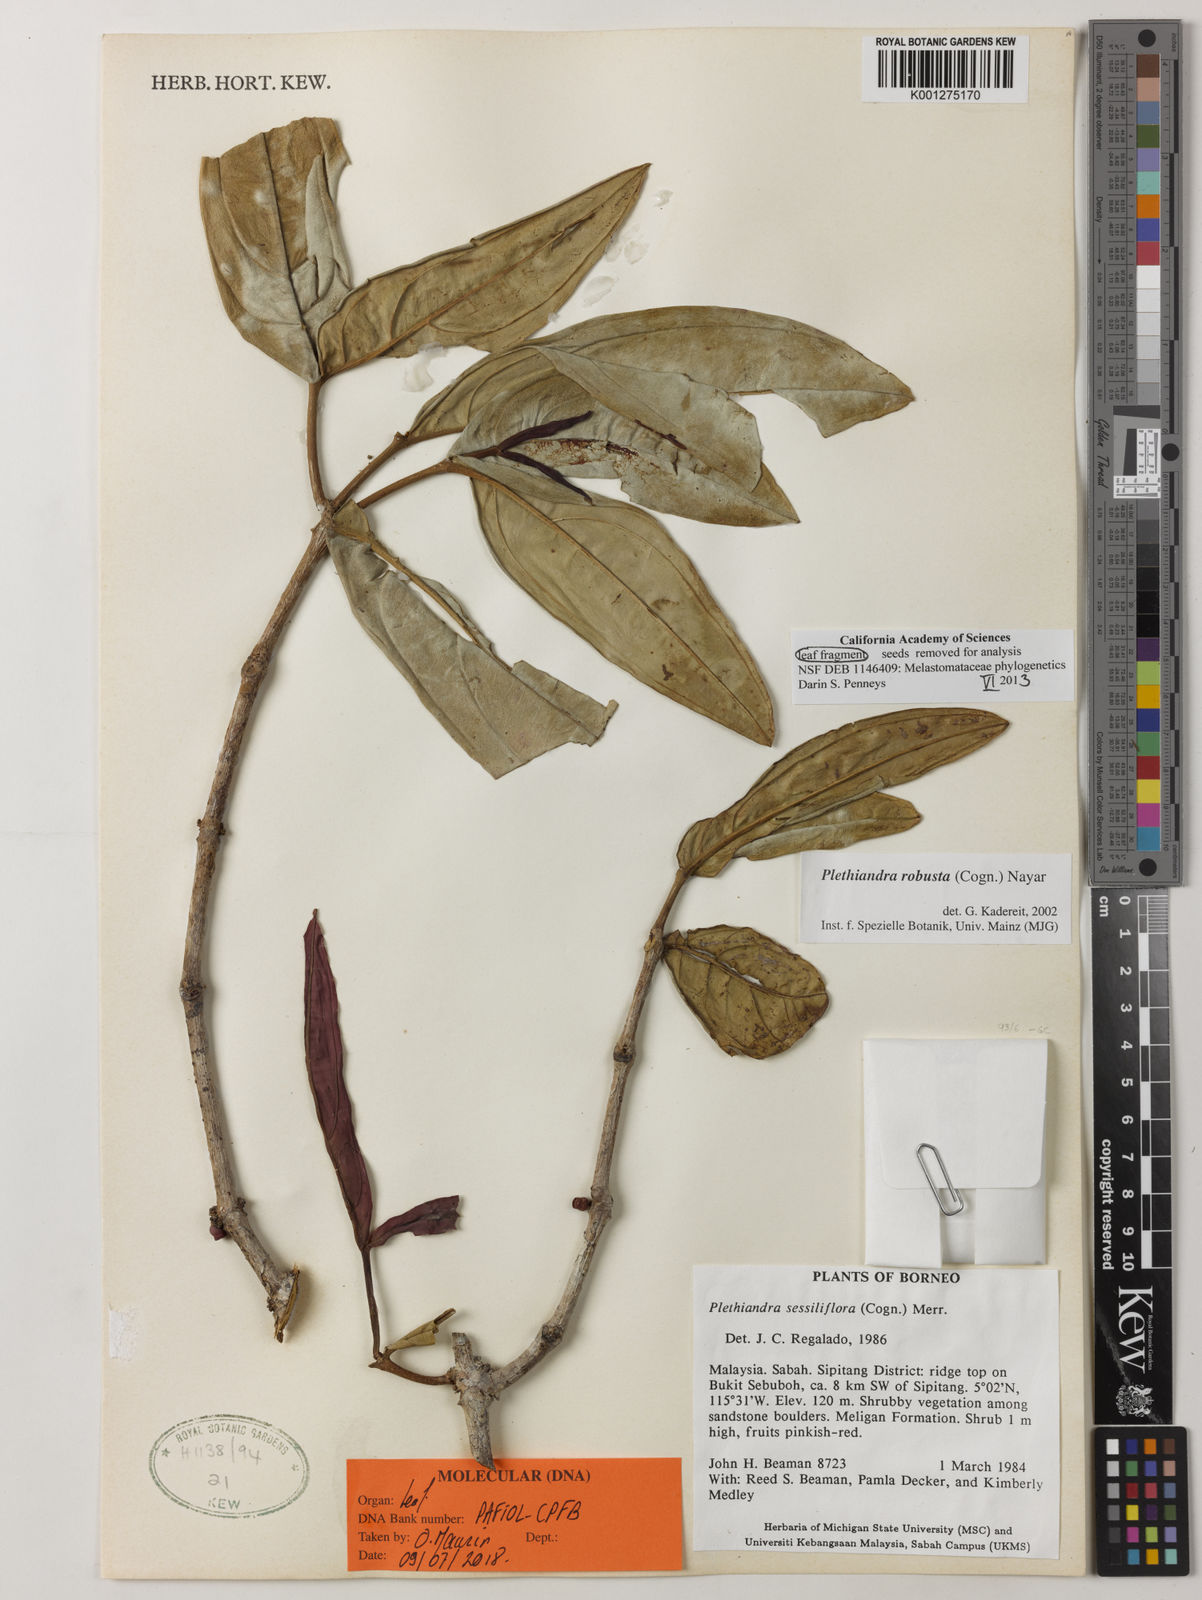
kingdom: Plantae
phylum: Tracheophyta
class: Magnoliopsida
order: Myrtales
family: Melastomataceae
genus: Plethiandra
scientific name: Plethiandra robusta
